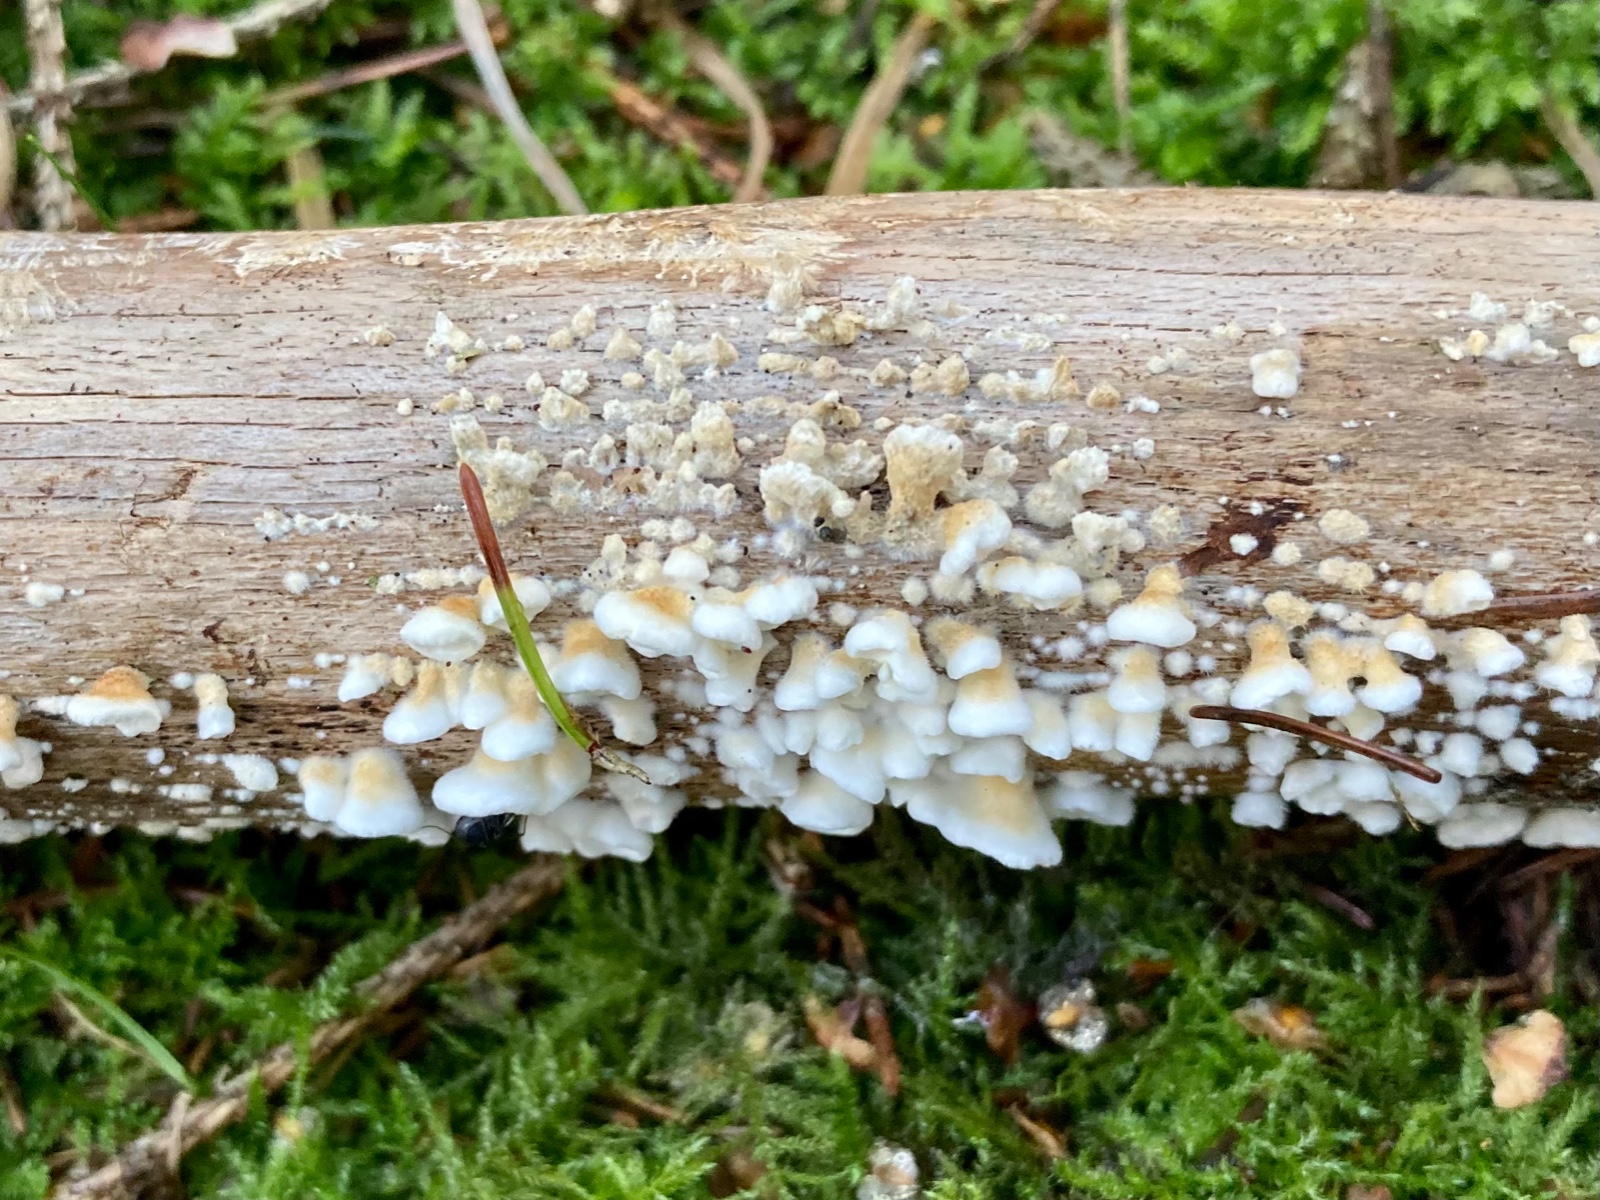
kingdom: Fungi
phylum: Basidiomycota
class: Agaricomycetes
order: Amylocorticiales
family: Amylocorticiaceae
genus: Plicaturopsis
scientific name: Plicaturopsis crispa
